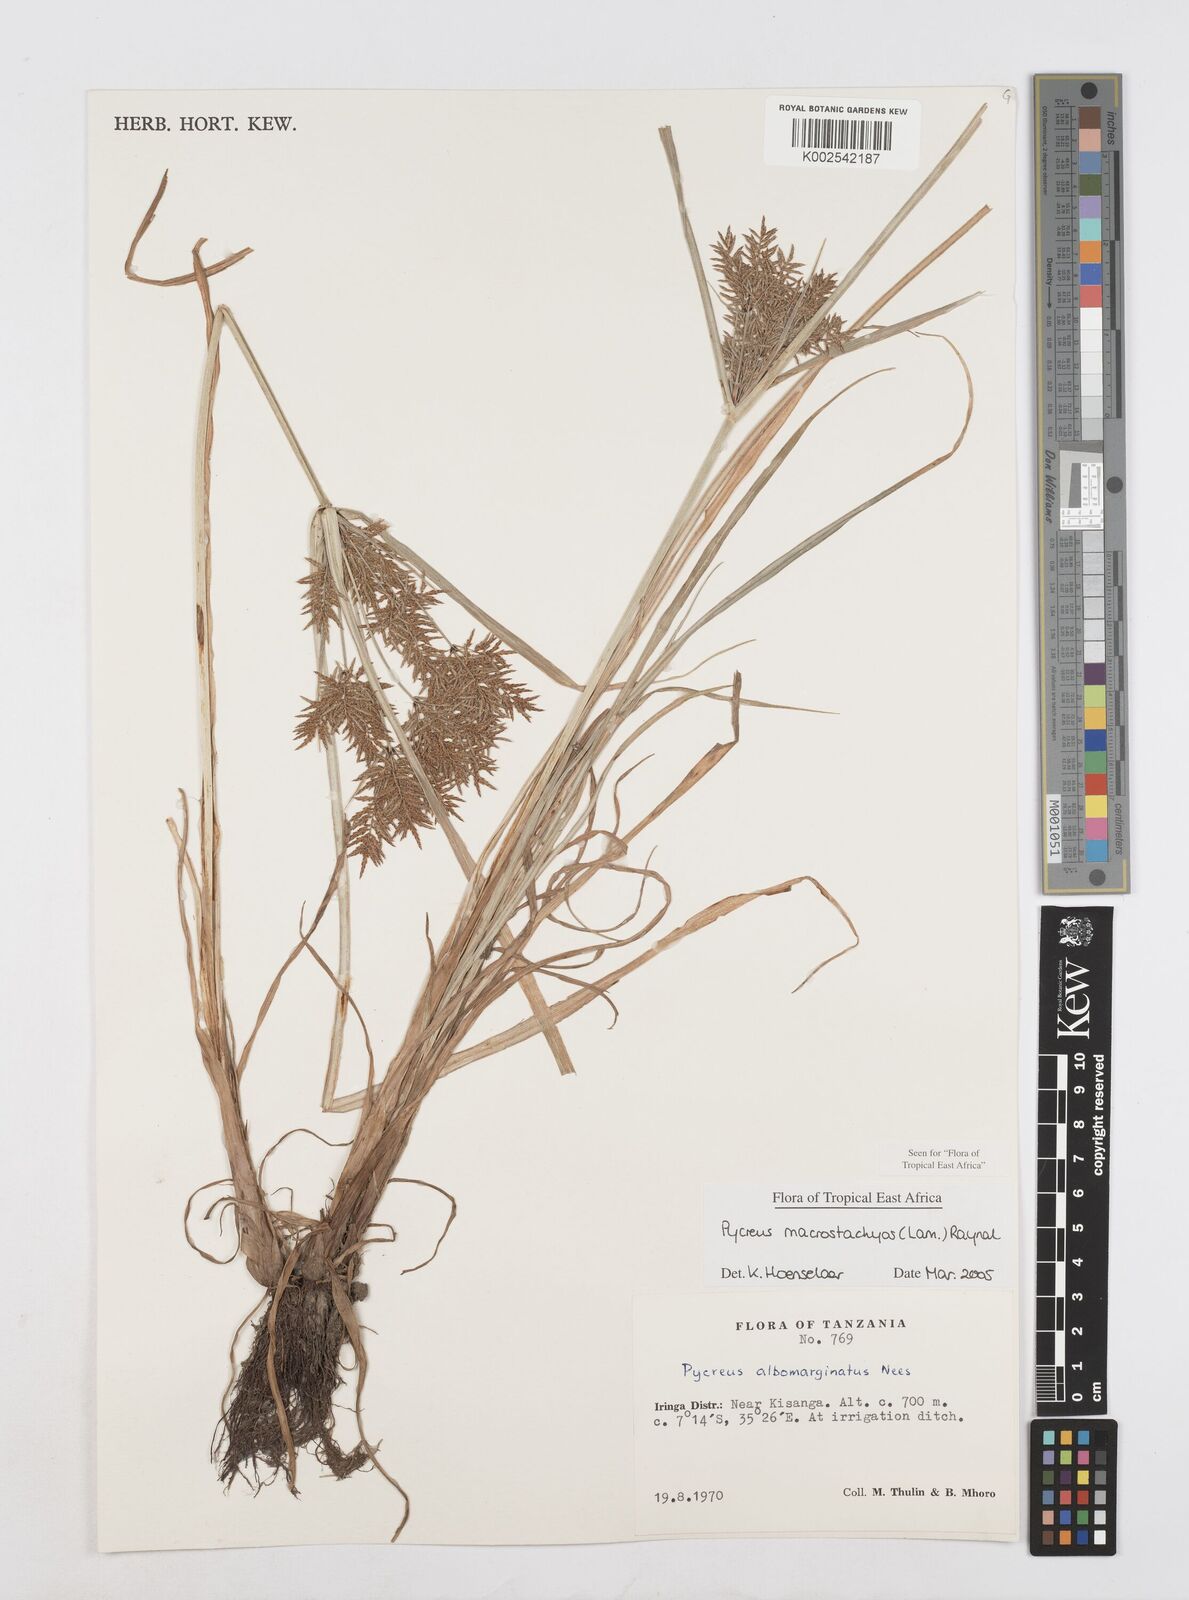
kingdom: Plantae
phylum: Tracheophyta
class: Liliopsida
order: Poales
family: Cyperaceae
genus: Cyperus
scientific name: Cyperus macrostachyos
